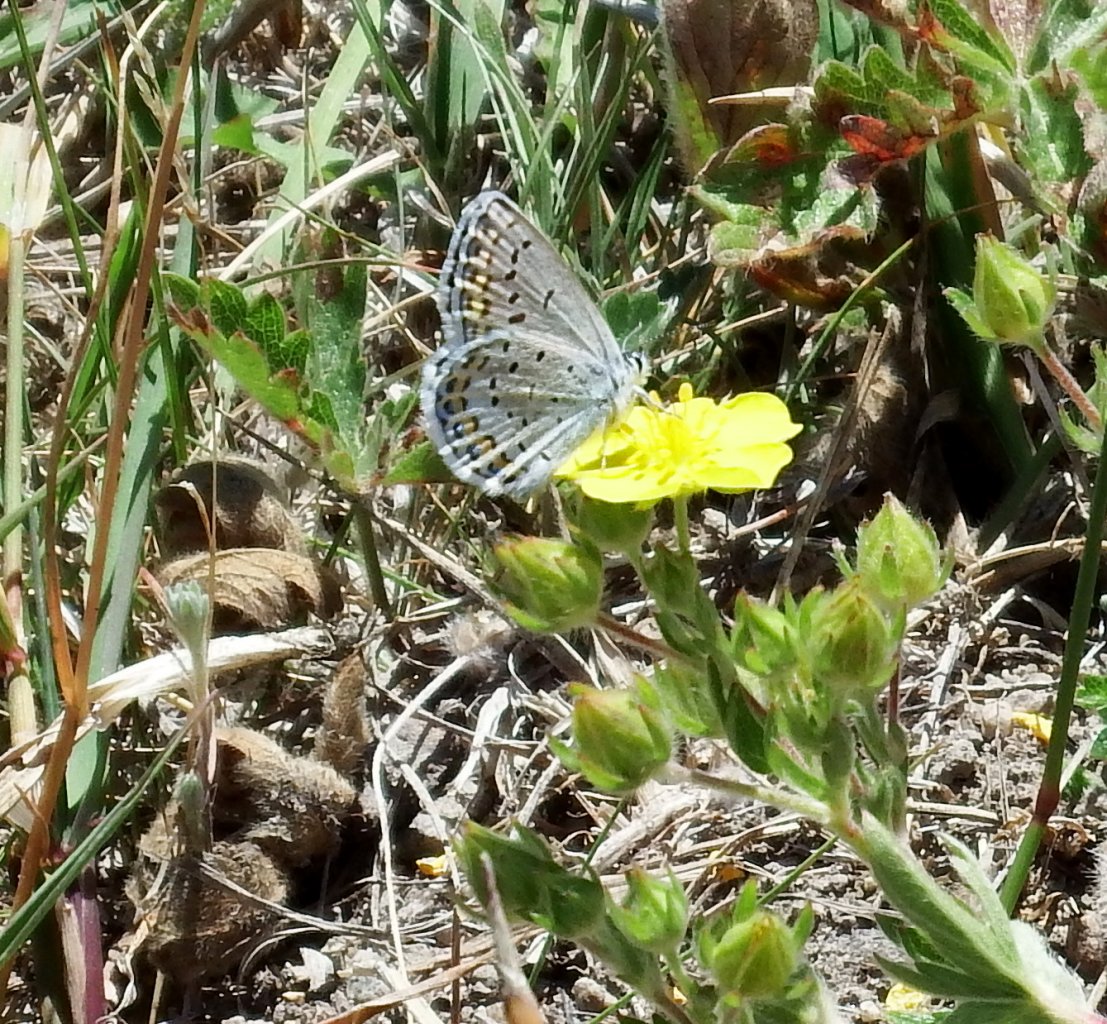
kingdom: Animalia
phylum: Arthropoda
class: Insecta
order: Lepidoptera
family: Lycaenidae
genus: Lycaeides
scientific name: Lycaeides melissa
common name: Melissa Blue
